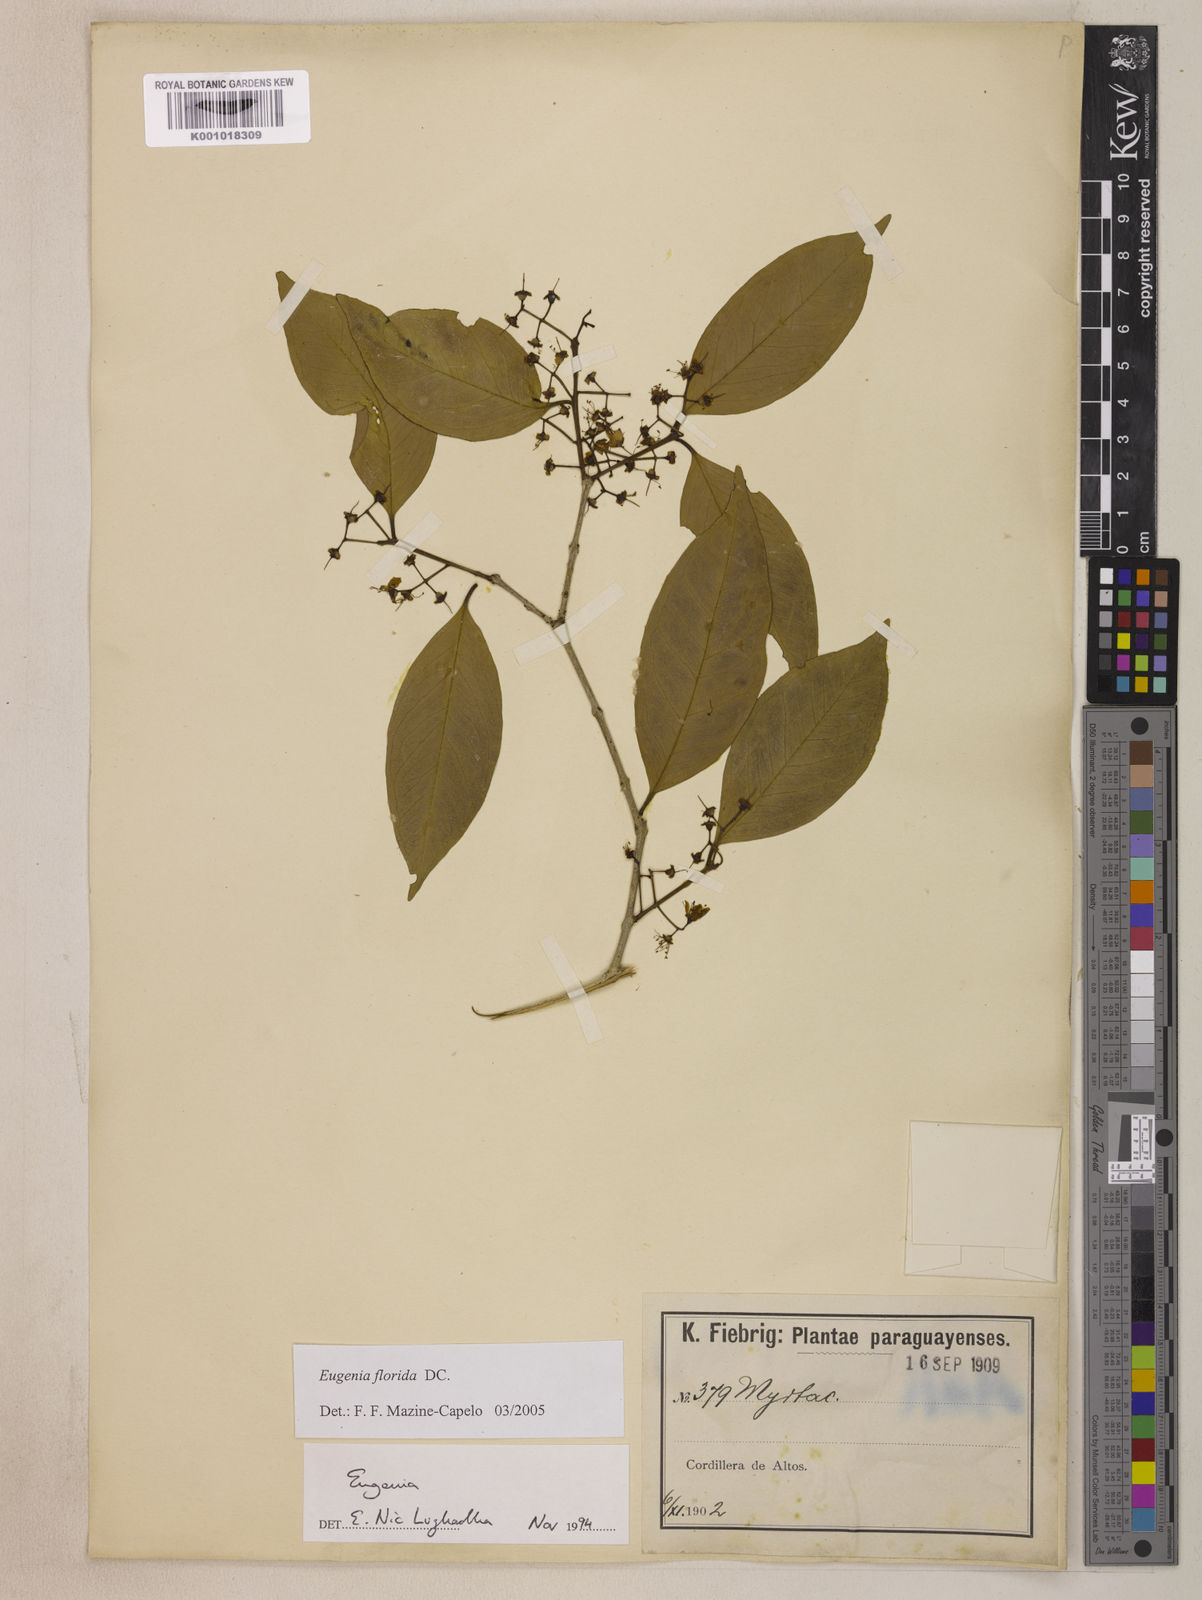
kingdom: Plantae
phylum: Tracheophyta
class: Magnoliopsida
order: Myrtales
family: Myrtaceae
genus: Eugenia
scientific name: Eugenia florida
